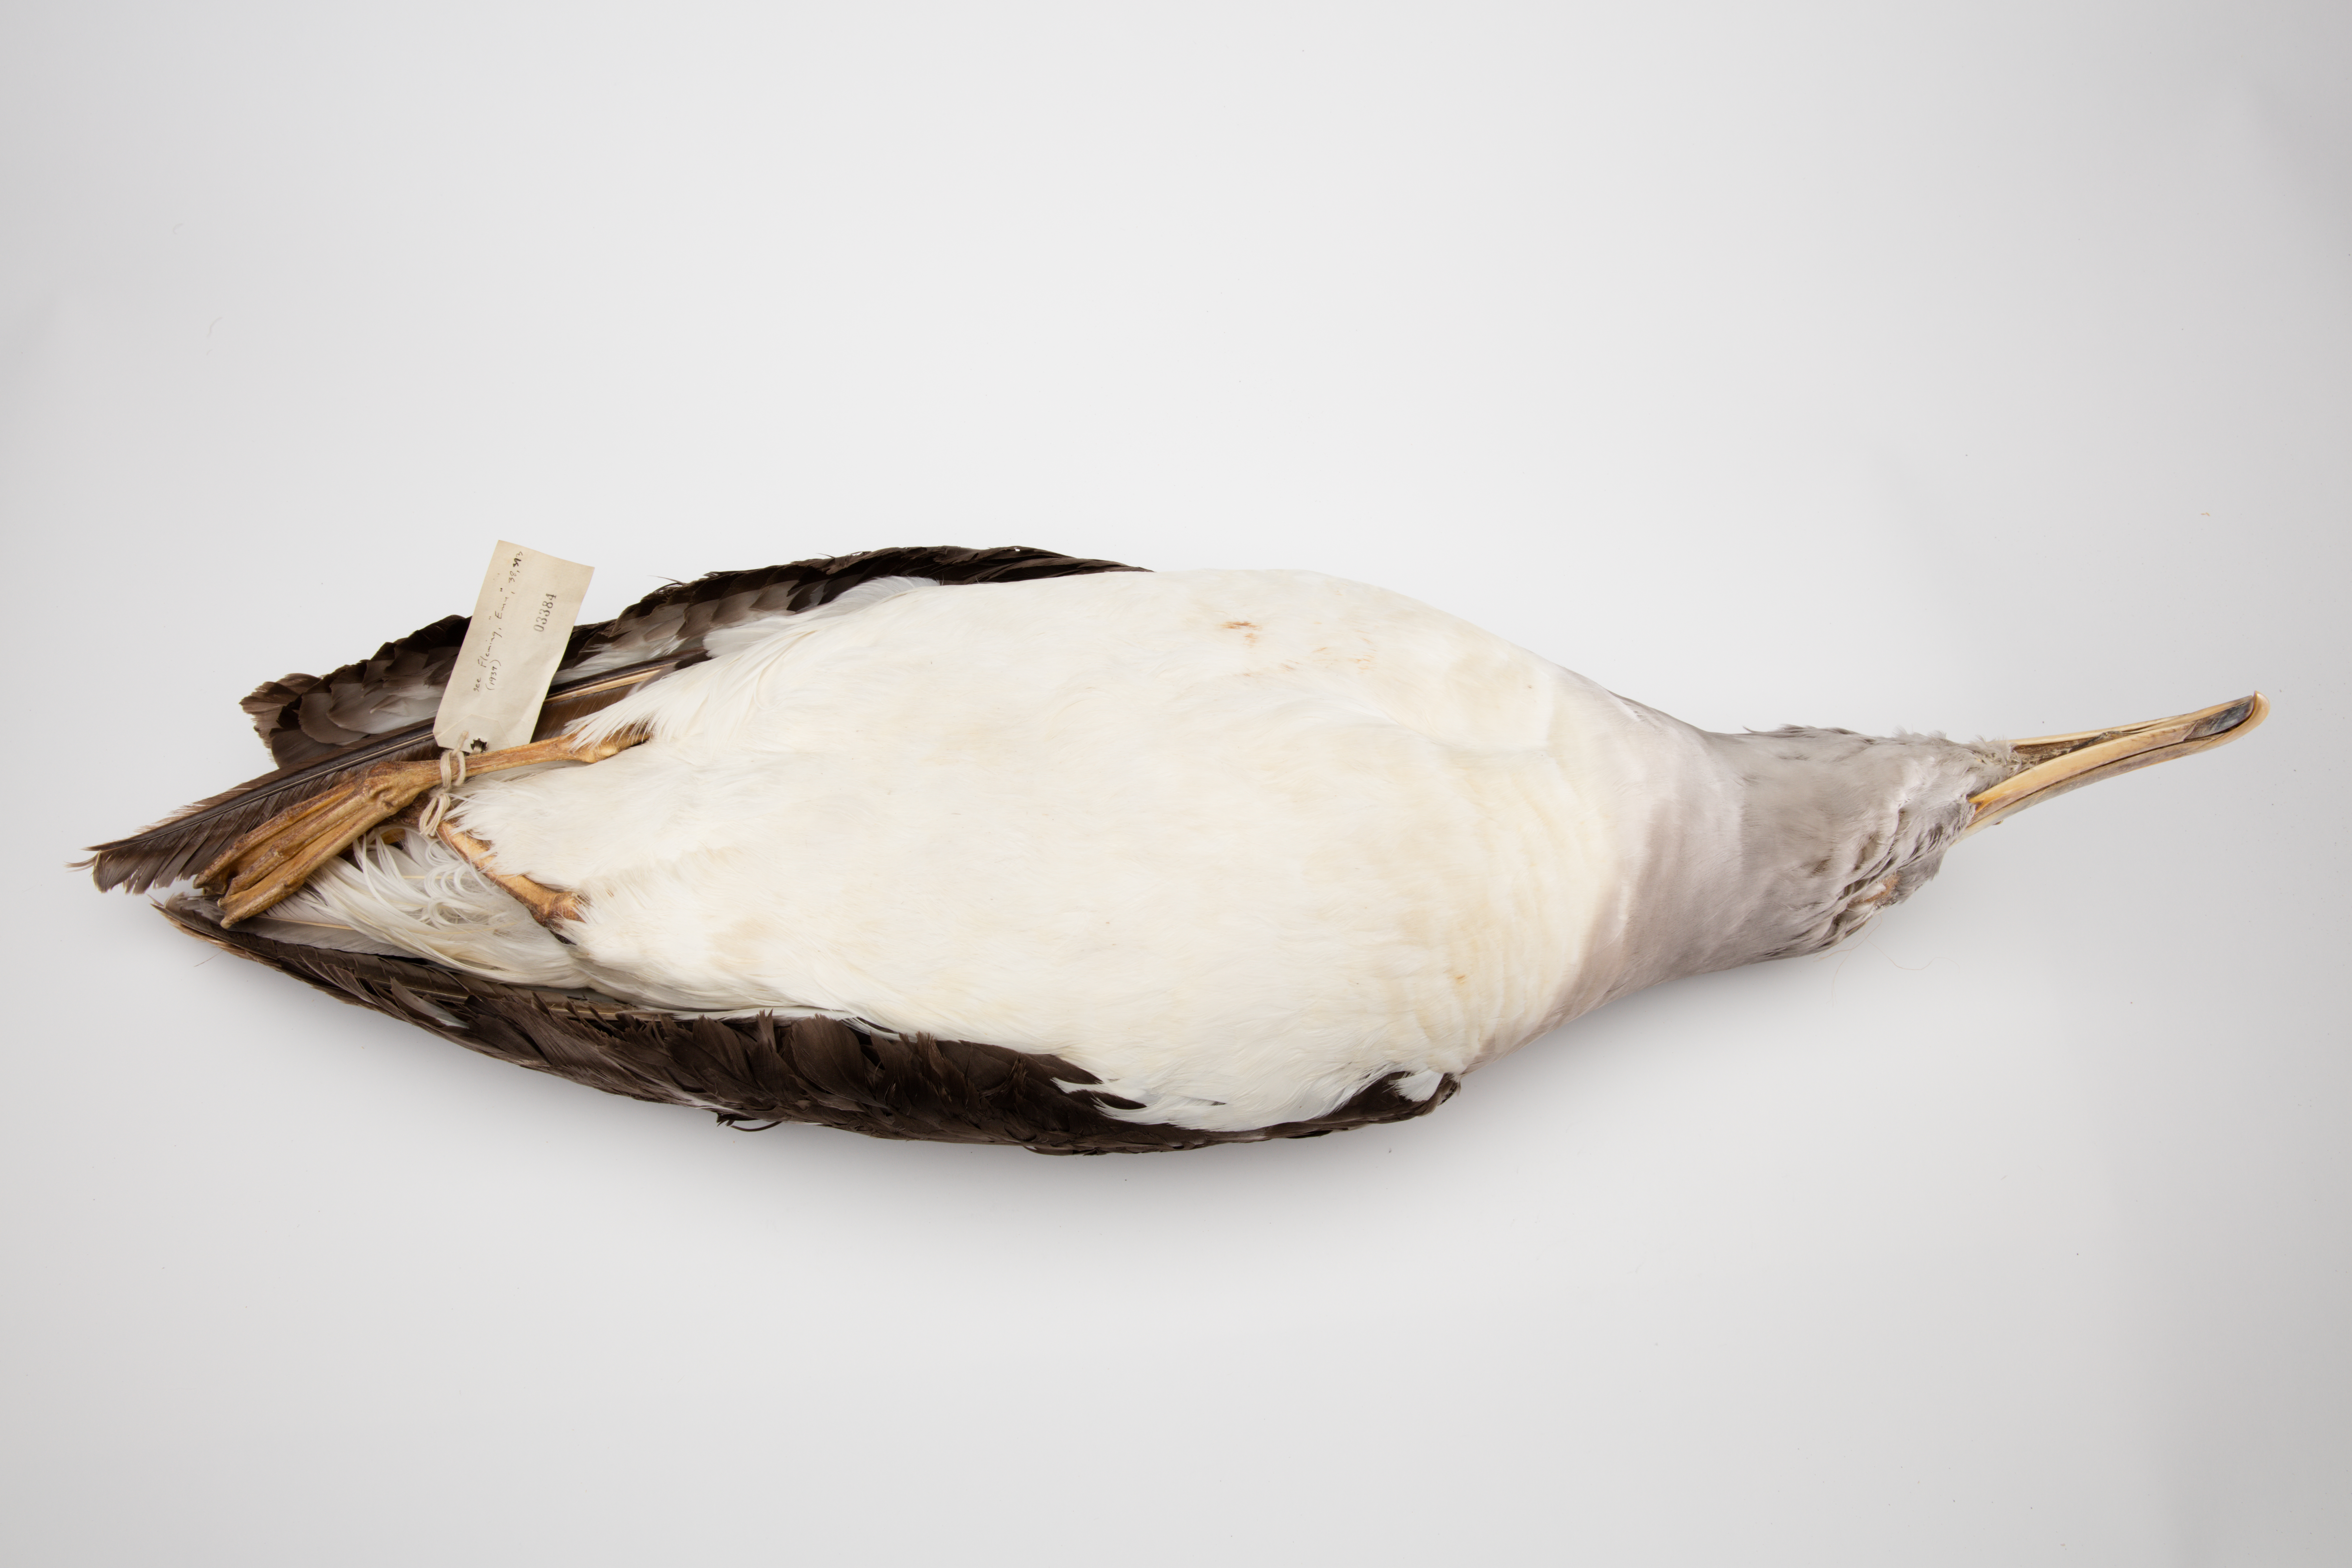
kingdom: Animalia
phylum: Chordata
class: Aves
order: Procellariiformes
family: Diomedeidae
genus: Thalassarche
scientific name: Thalassarche eremita
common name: Chatham albatross
